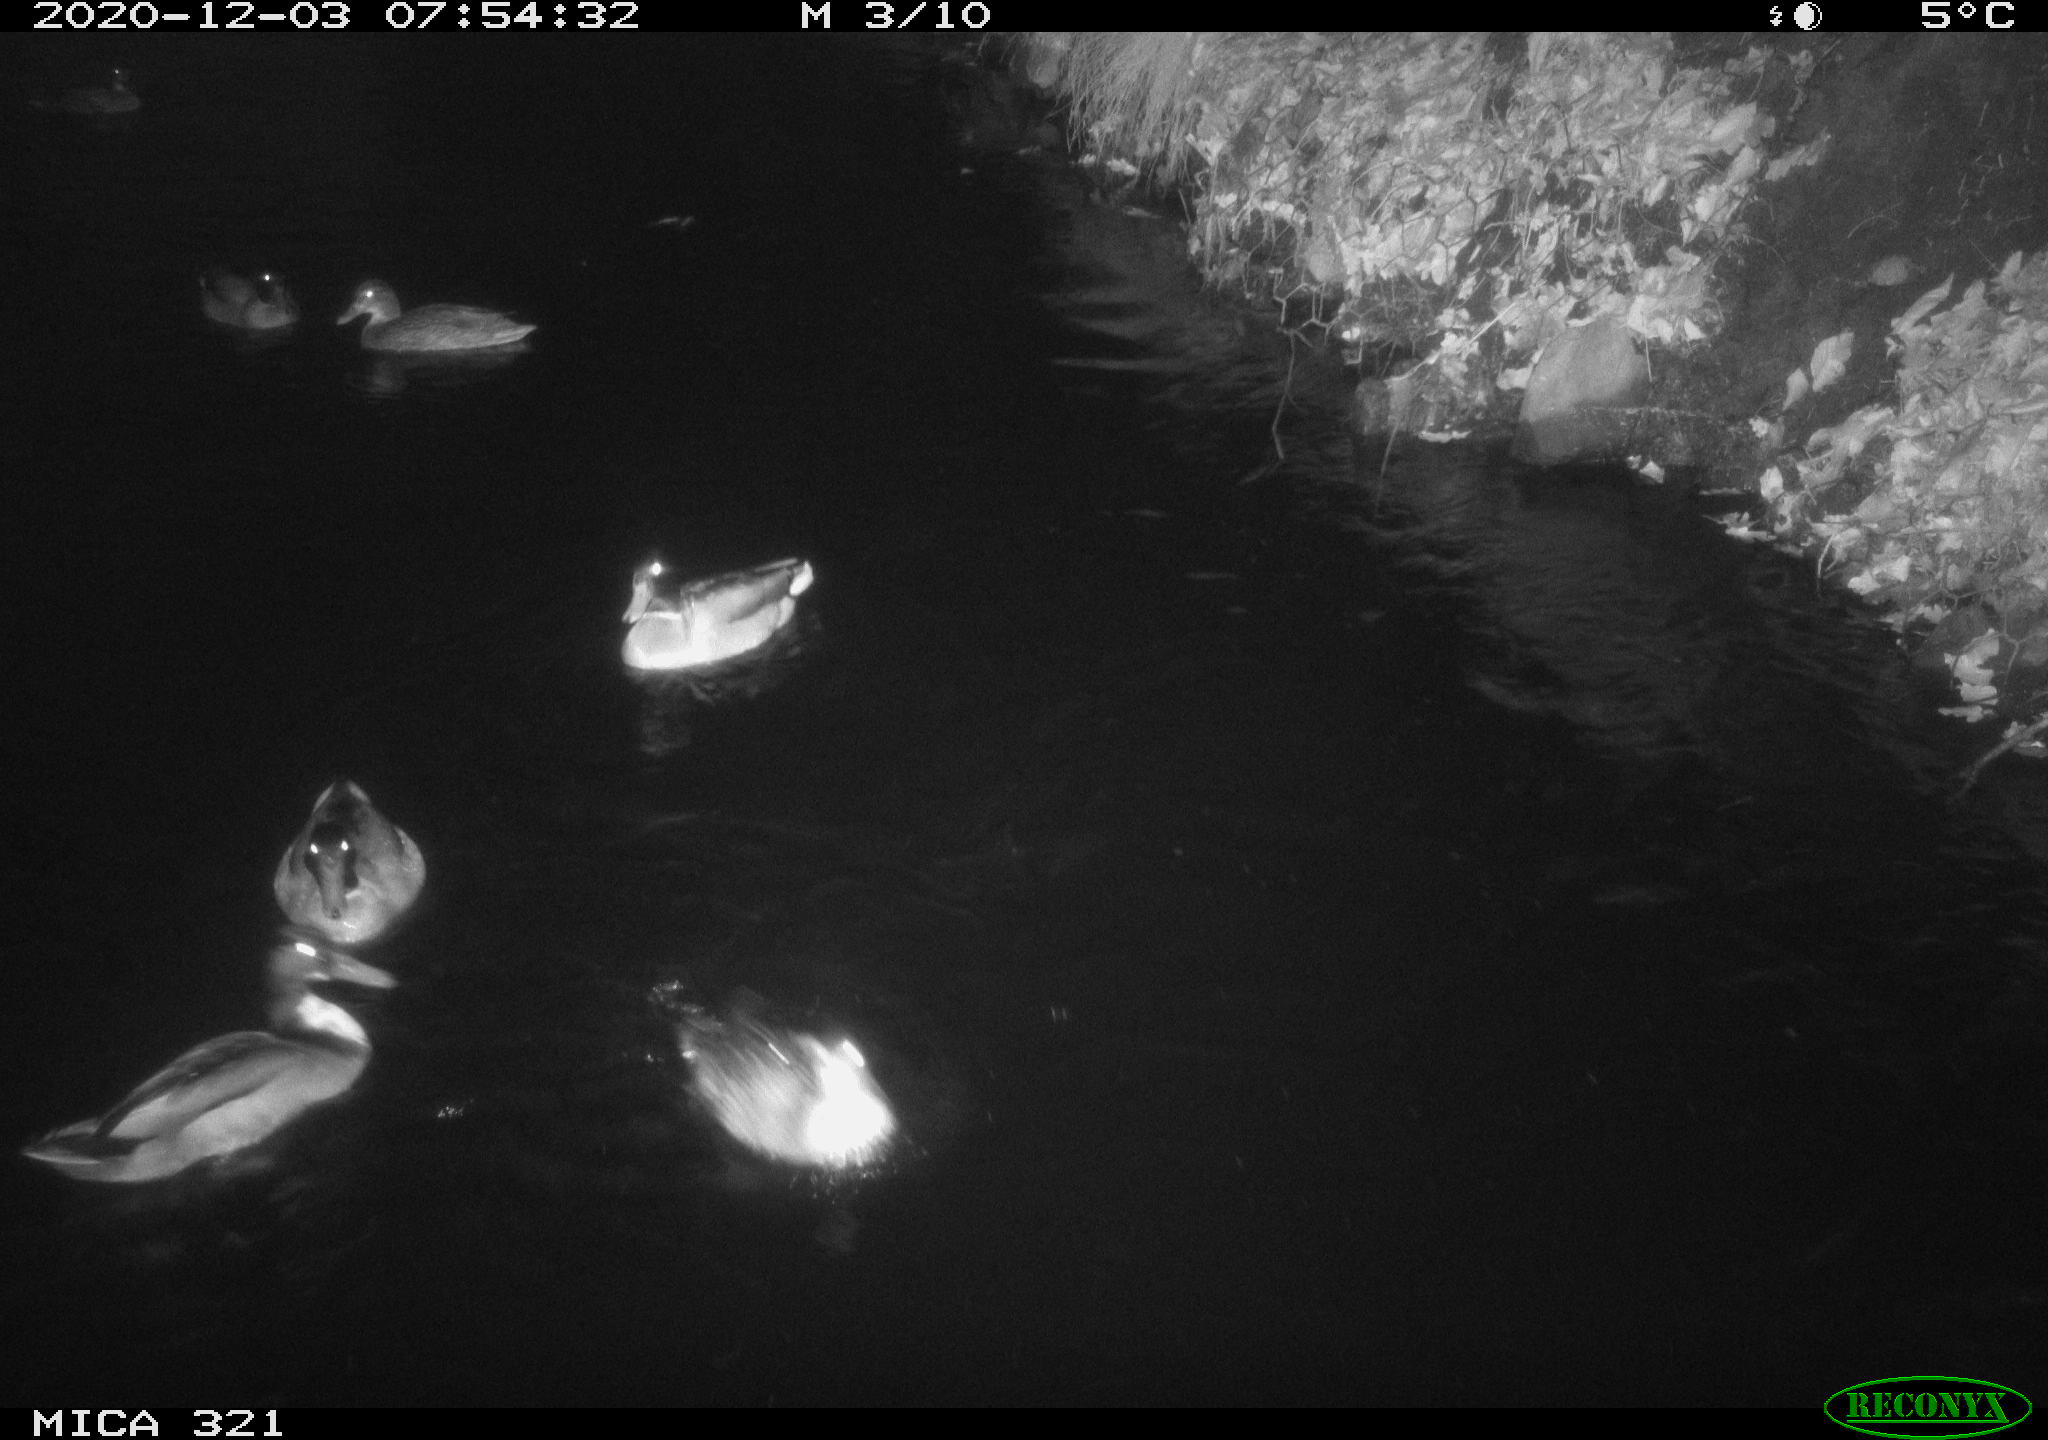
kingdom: Animalia
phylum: Chordata
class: Aves
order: Anseriformes
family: Anatidae
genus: Anas
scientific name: Anas platyrhynchos
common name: Mallard
